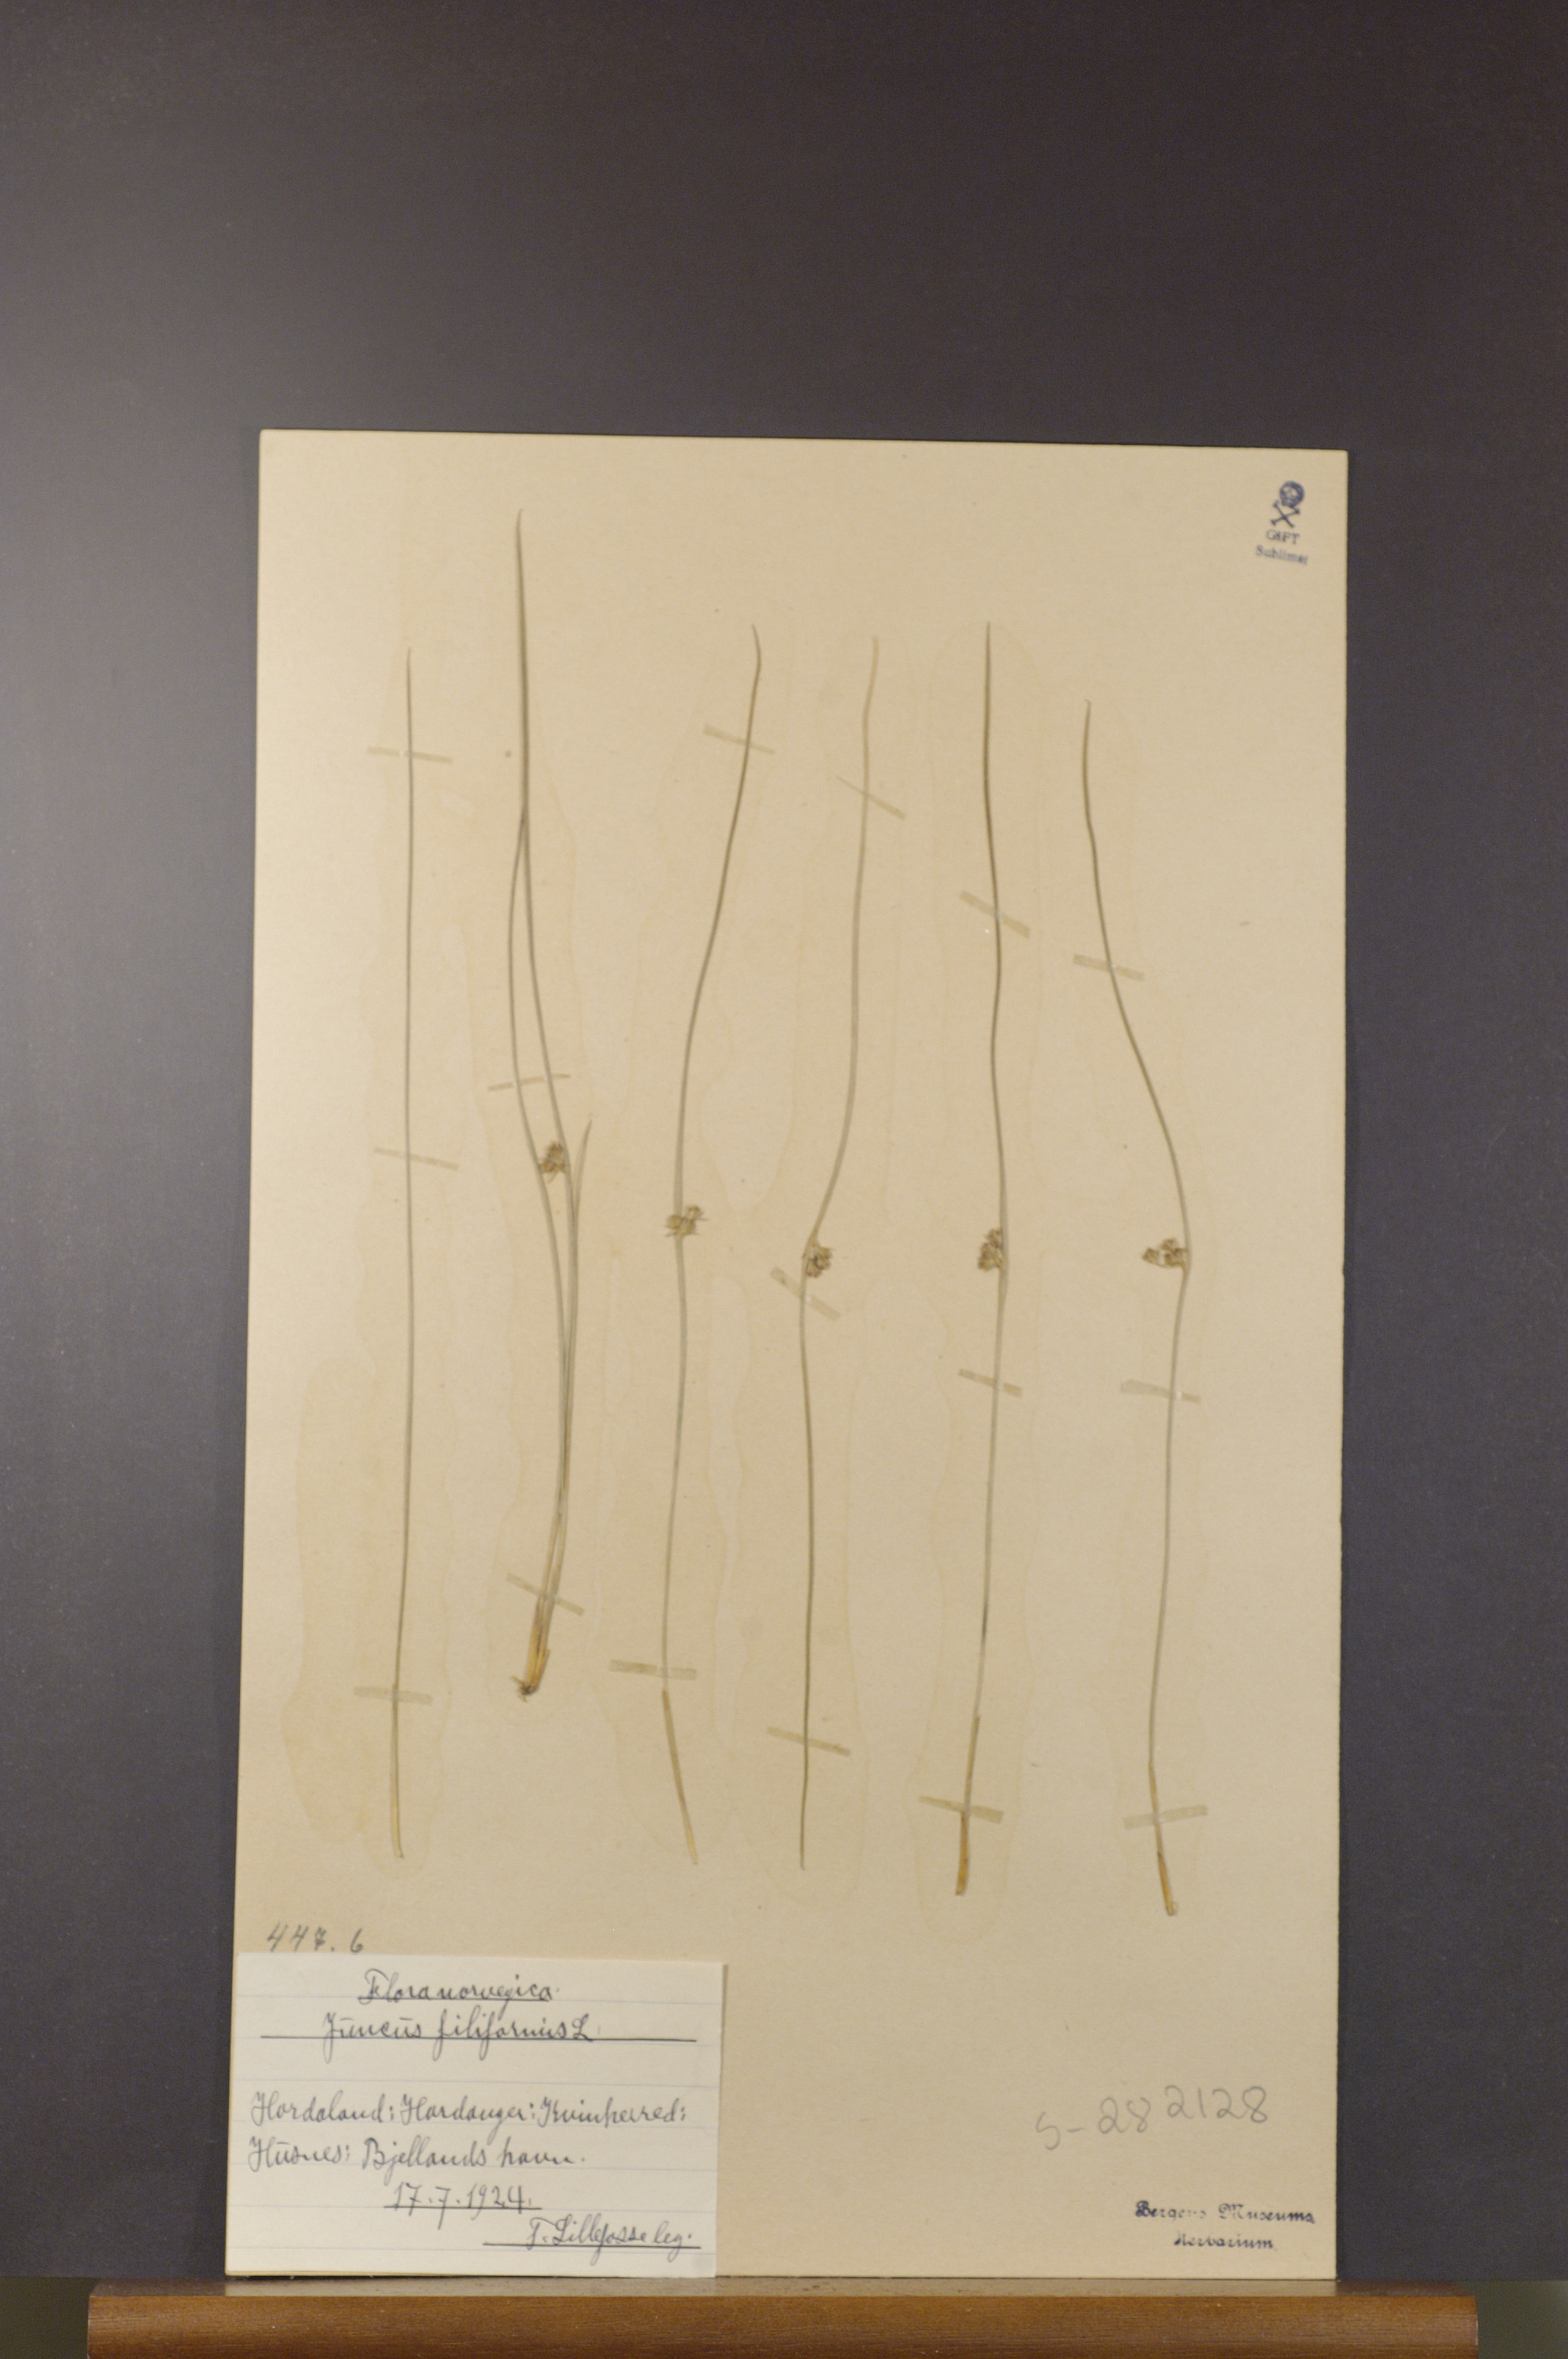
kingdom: Plantae
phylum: Tracheophyta
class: Liliopsida
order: Poales
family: Juncaceae
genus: Juncus
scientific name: Juncus filiformis
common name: Thread rush
